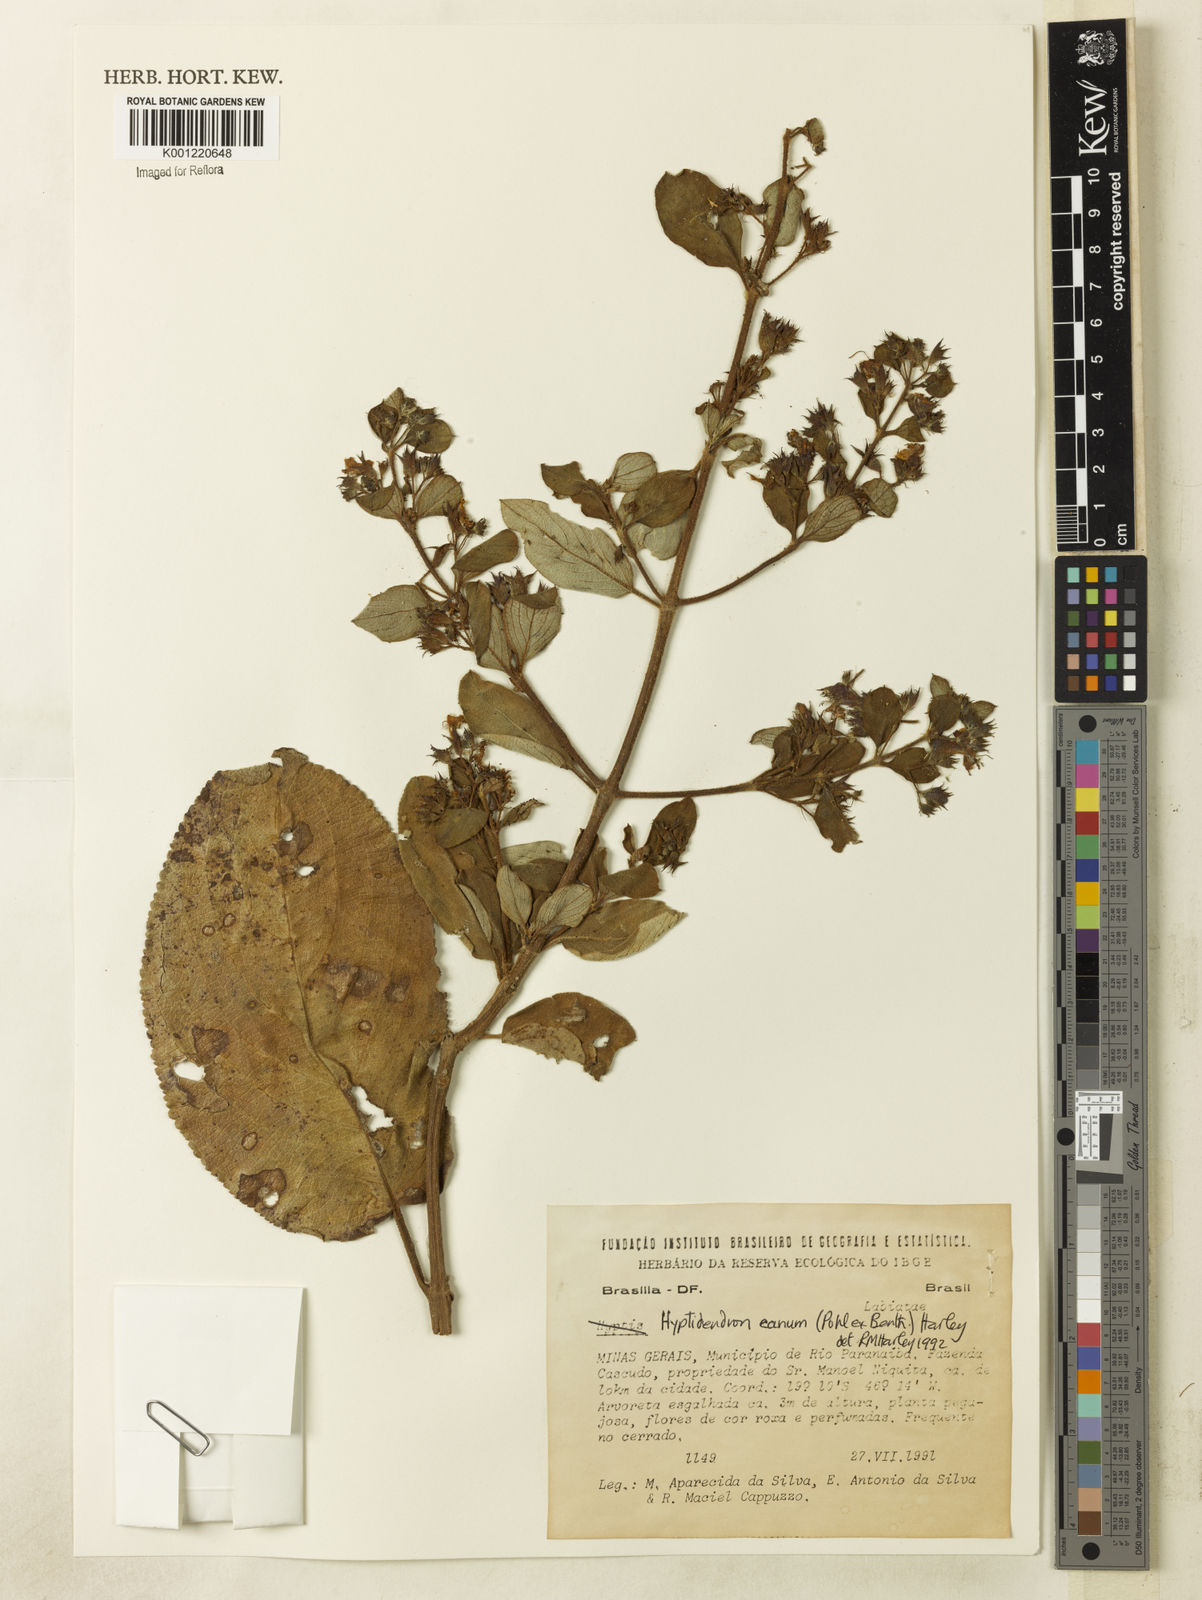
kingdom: Plantae
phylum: Tracheophyta
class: Magnoliopsida
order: Lamiales
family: Lamiaceae
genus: Hyptidendron
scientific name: Hyptidendron canum
